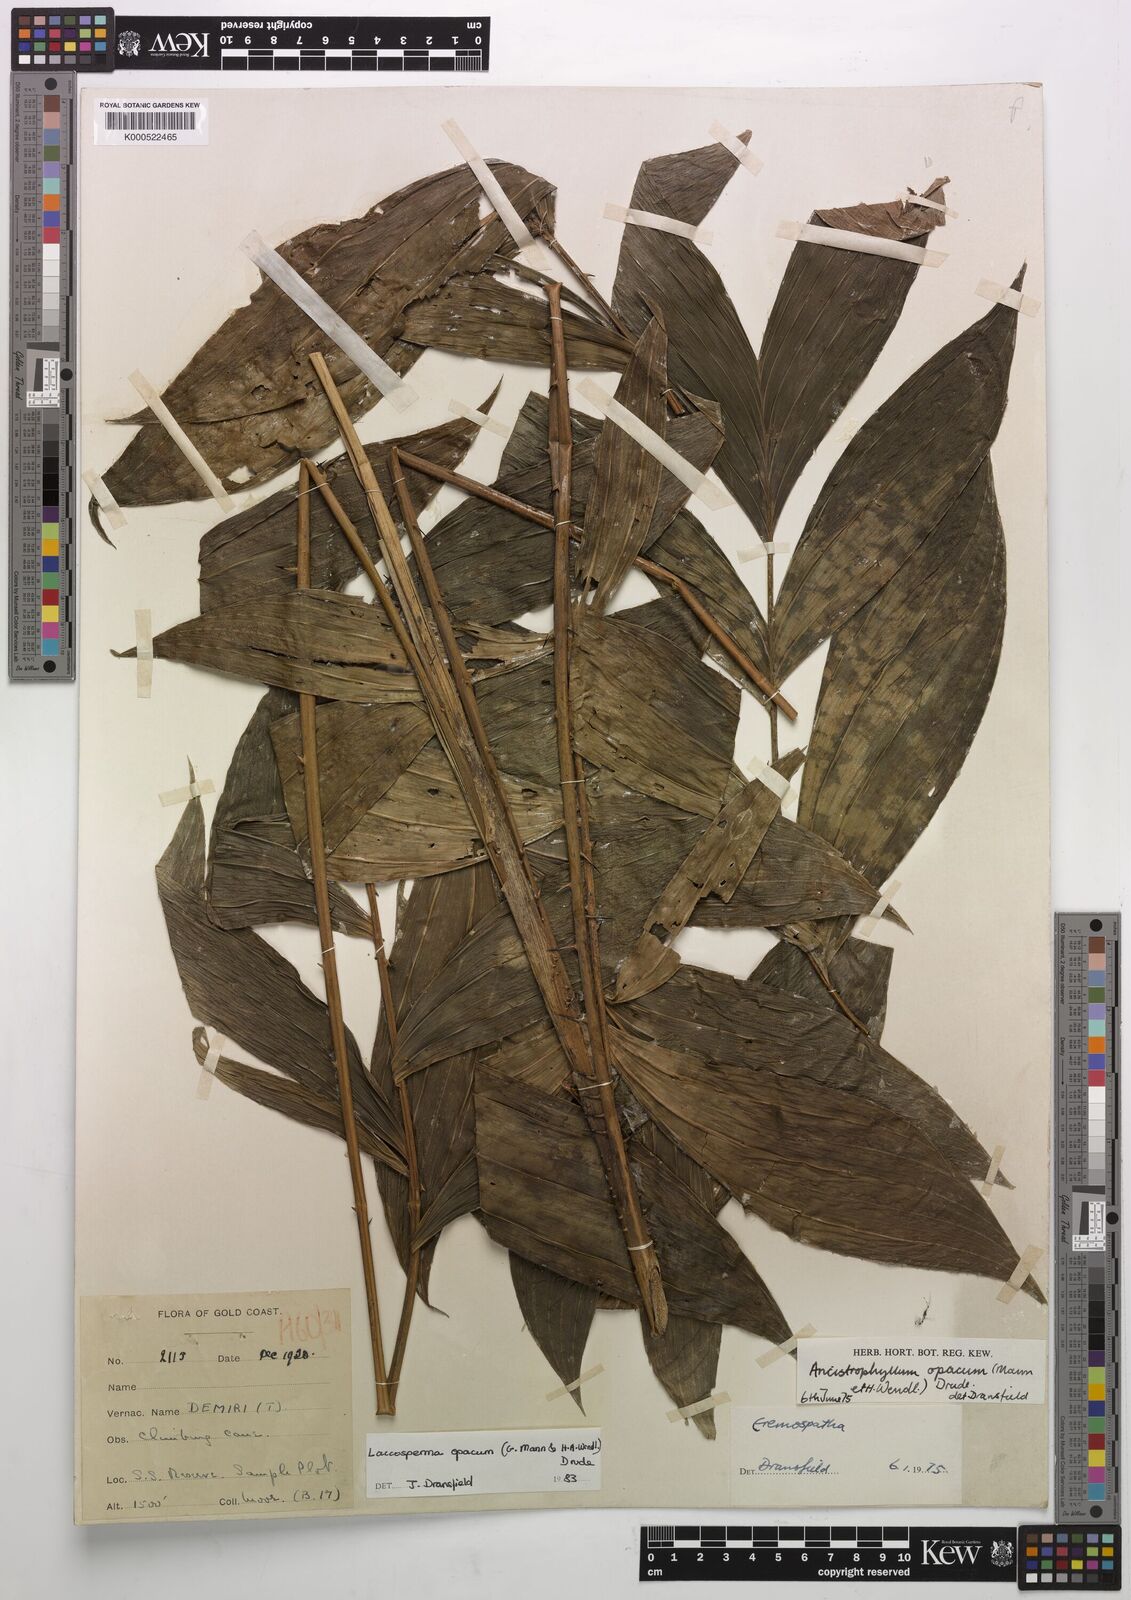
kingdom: Plantae
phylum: Tracheophyta
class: Liliopsida
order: Arecales
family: Arecaceae
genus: Laccosperma
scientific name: Laccosperma opacum
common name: Rattan
